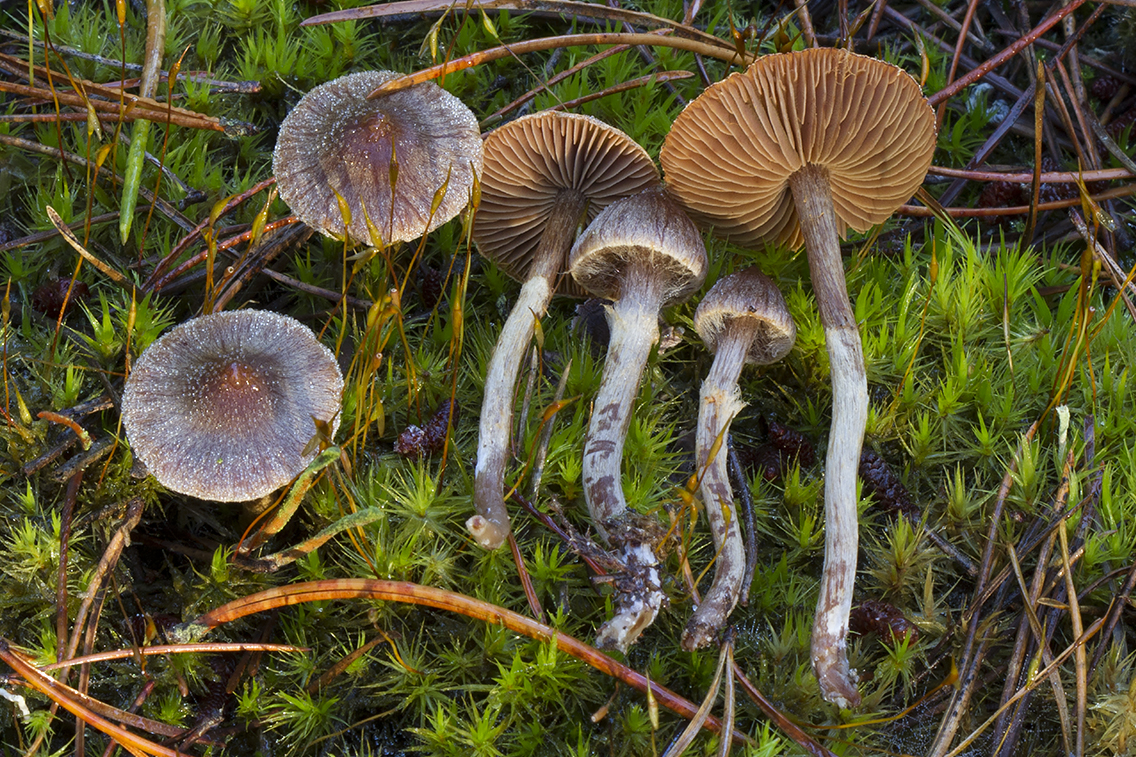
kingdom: Fungi
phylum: Basidiomycota
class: Agaricomycetes
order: Agaricales
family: Cortinariaceae
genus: Cortinarius
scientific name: Cortinarius fusisporus
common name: brunfnugget slørhat
